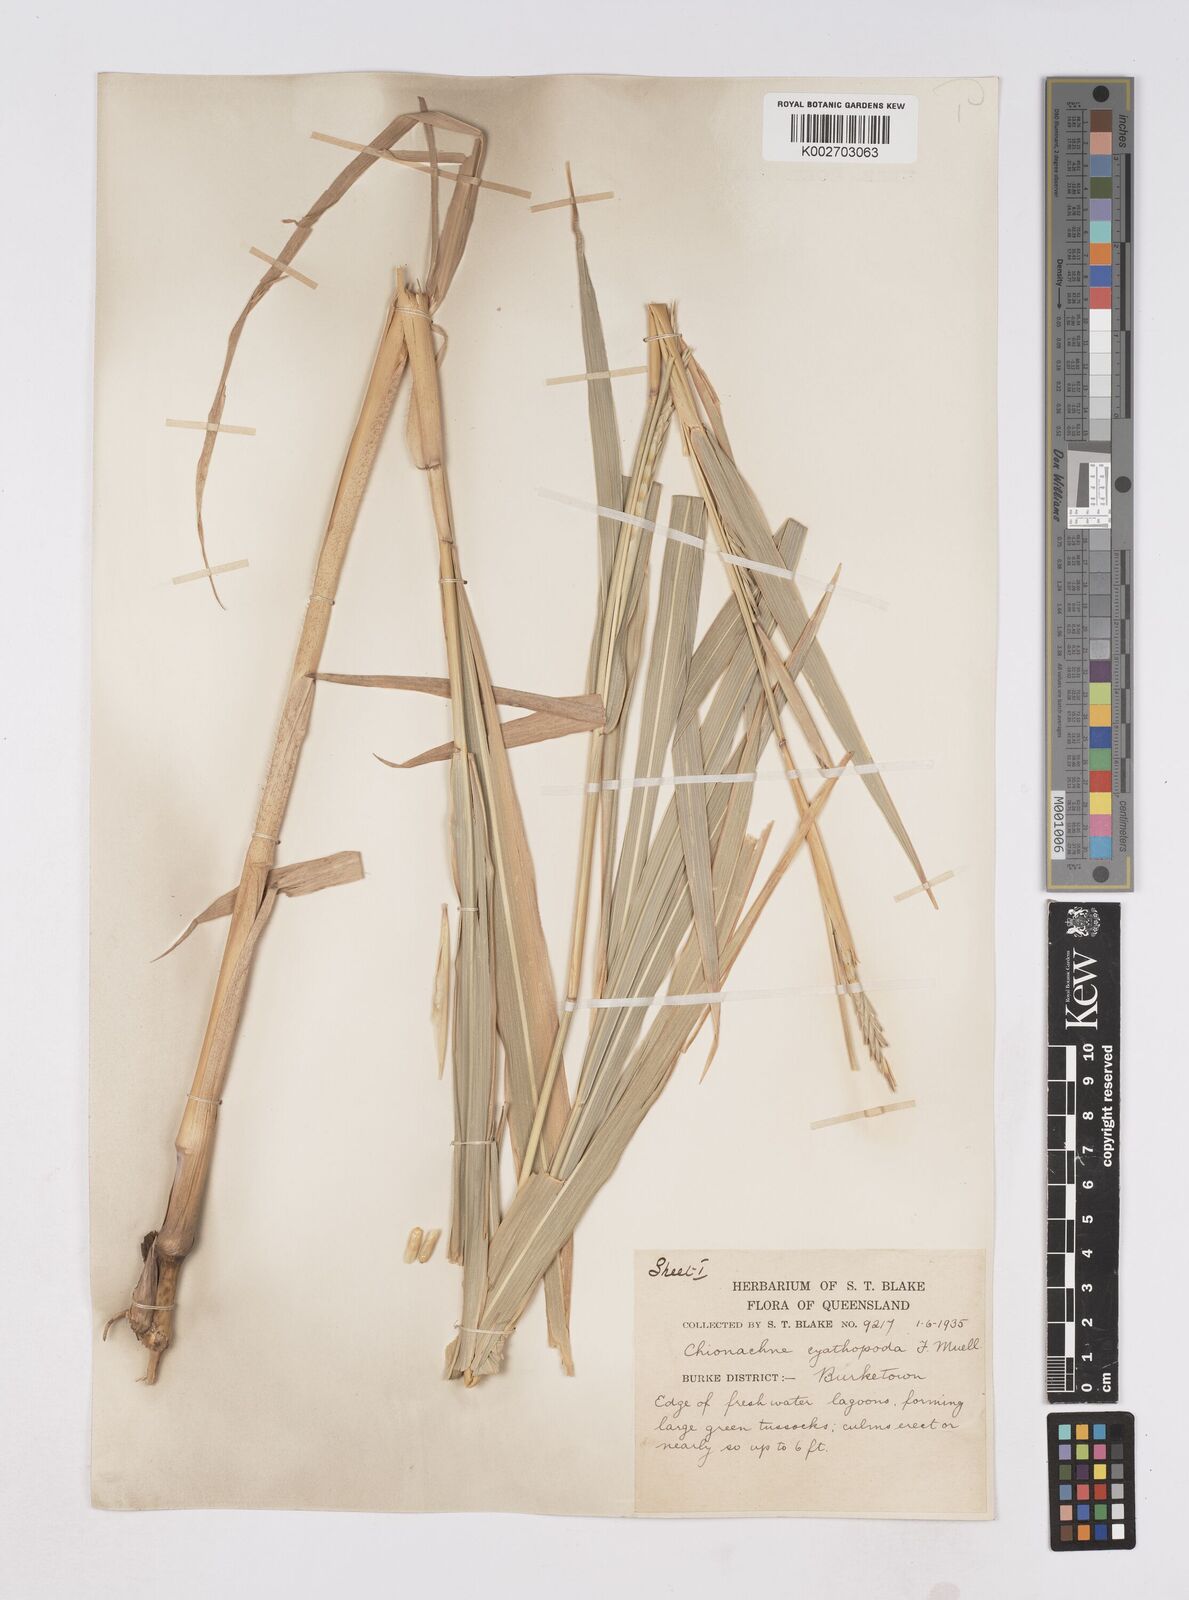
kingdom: Plantae
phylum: Tracheophyta
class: Liliopsida
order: Poales
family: Poaceae
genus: Polytoca
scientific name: Polytoca cyathopoda
